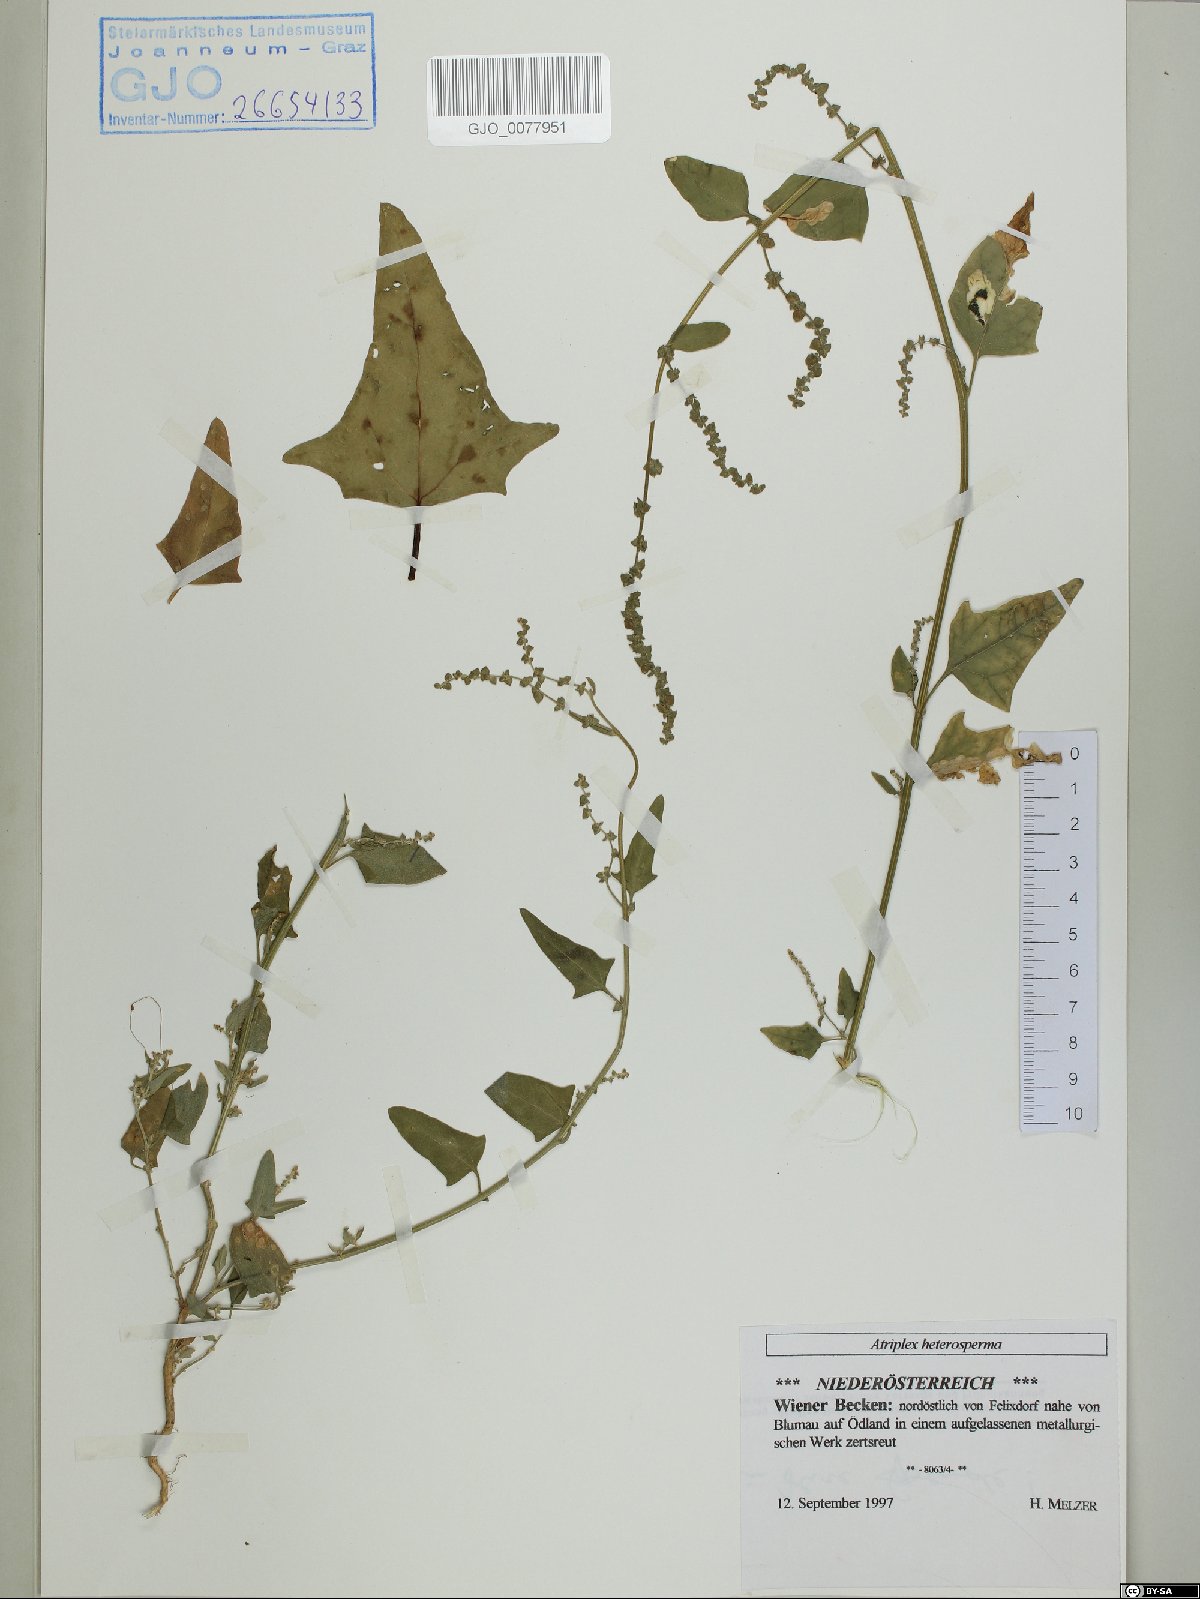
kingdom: Plantae
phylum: Tracheophyta
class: Magnoliopsida
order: Caryophyllales
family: Amaranthaceae
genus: Atriplex
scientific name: Atriplex micrantha
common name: Twoscale saltbush
